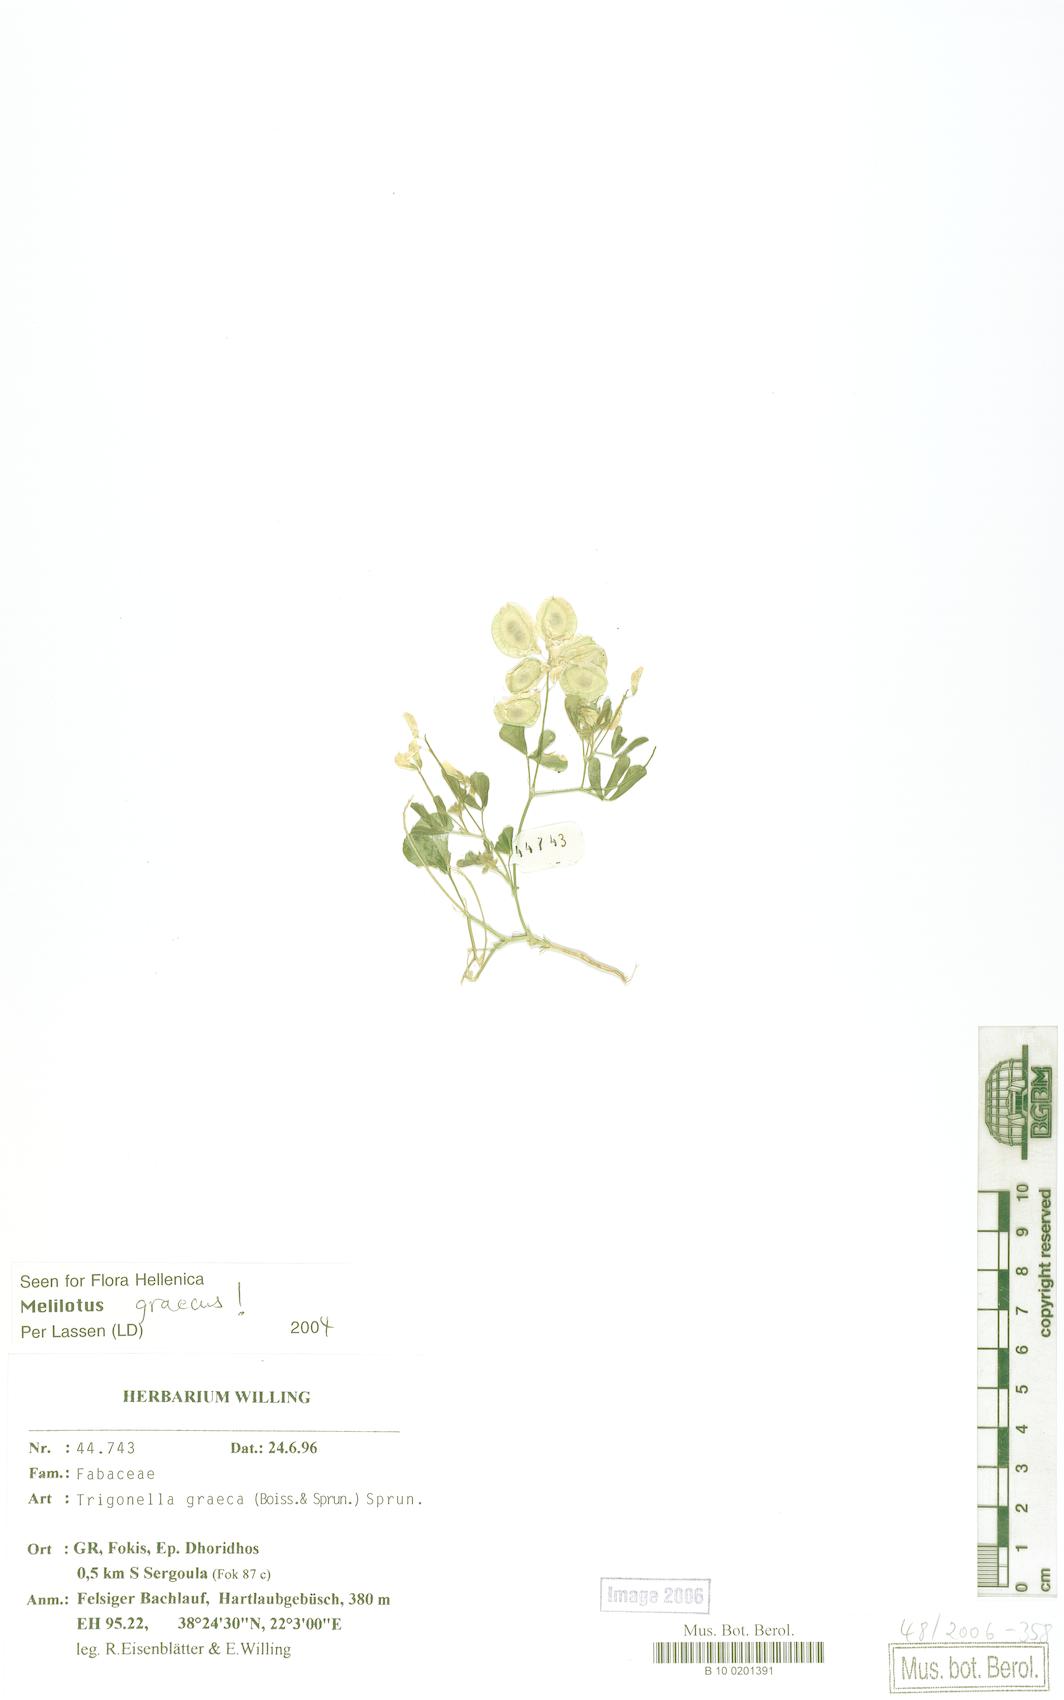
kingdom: Plantae
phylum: Tracheophyta
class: Magnoliopsida
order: Fabales
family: Fabaceae
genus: Trigonella
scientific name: Trigonella graeca
